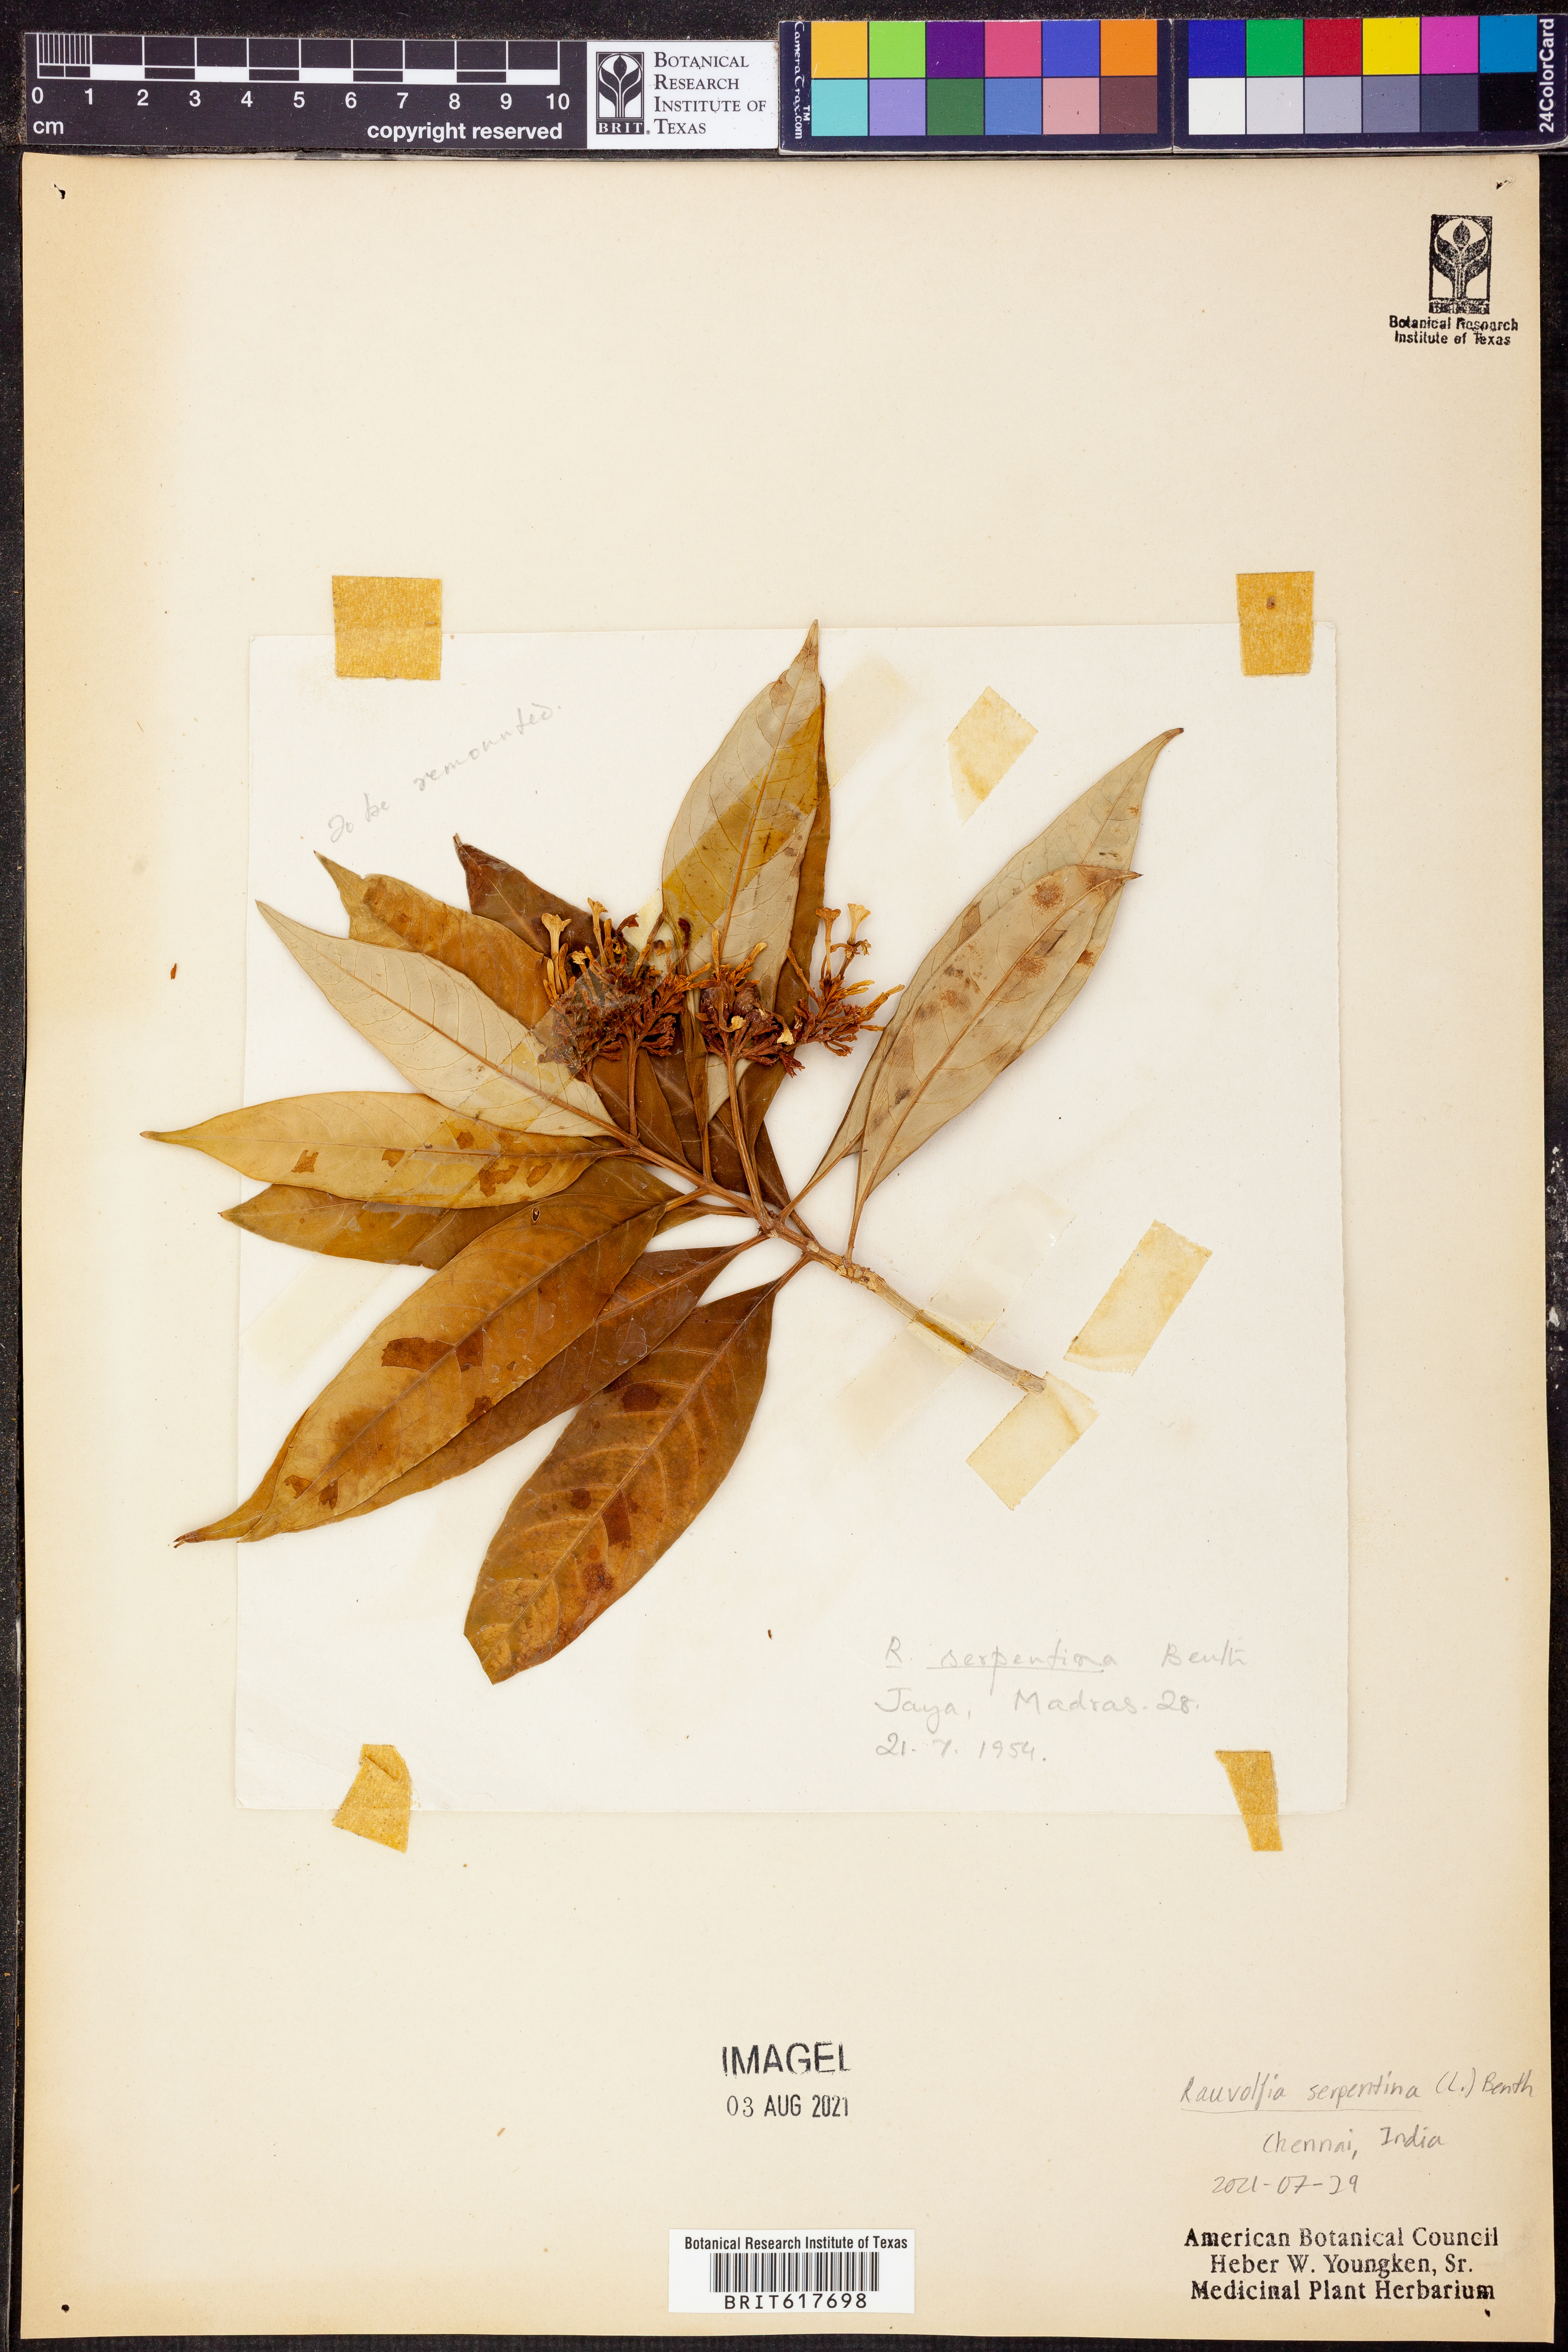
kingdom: Plantae
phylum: Tracheophyta
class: Magnoliopsida
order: Gentianales
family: Apocynaceae
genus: Rauvolfia
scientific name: Rauvolfia serpentina
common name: Ajmaline
